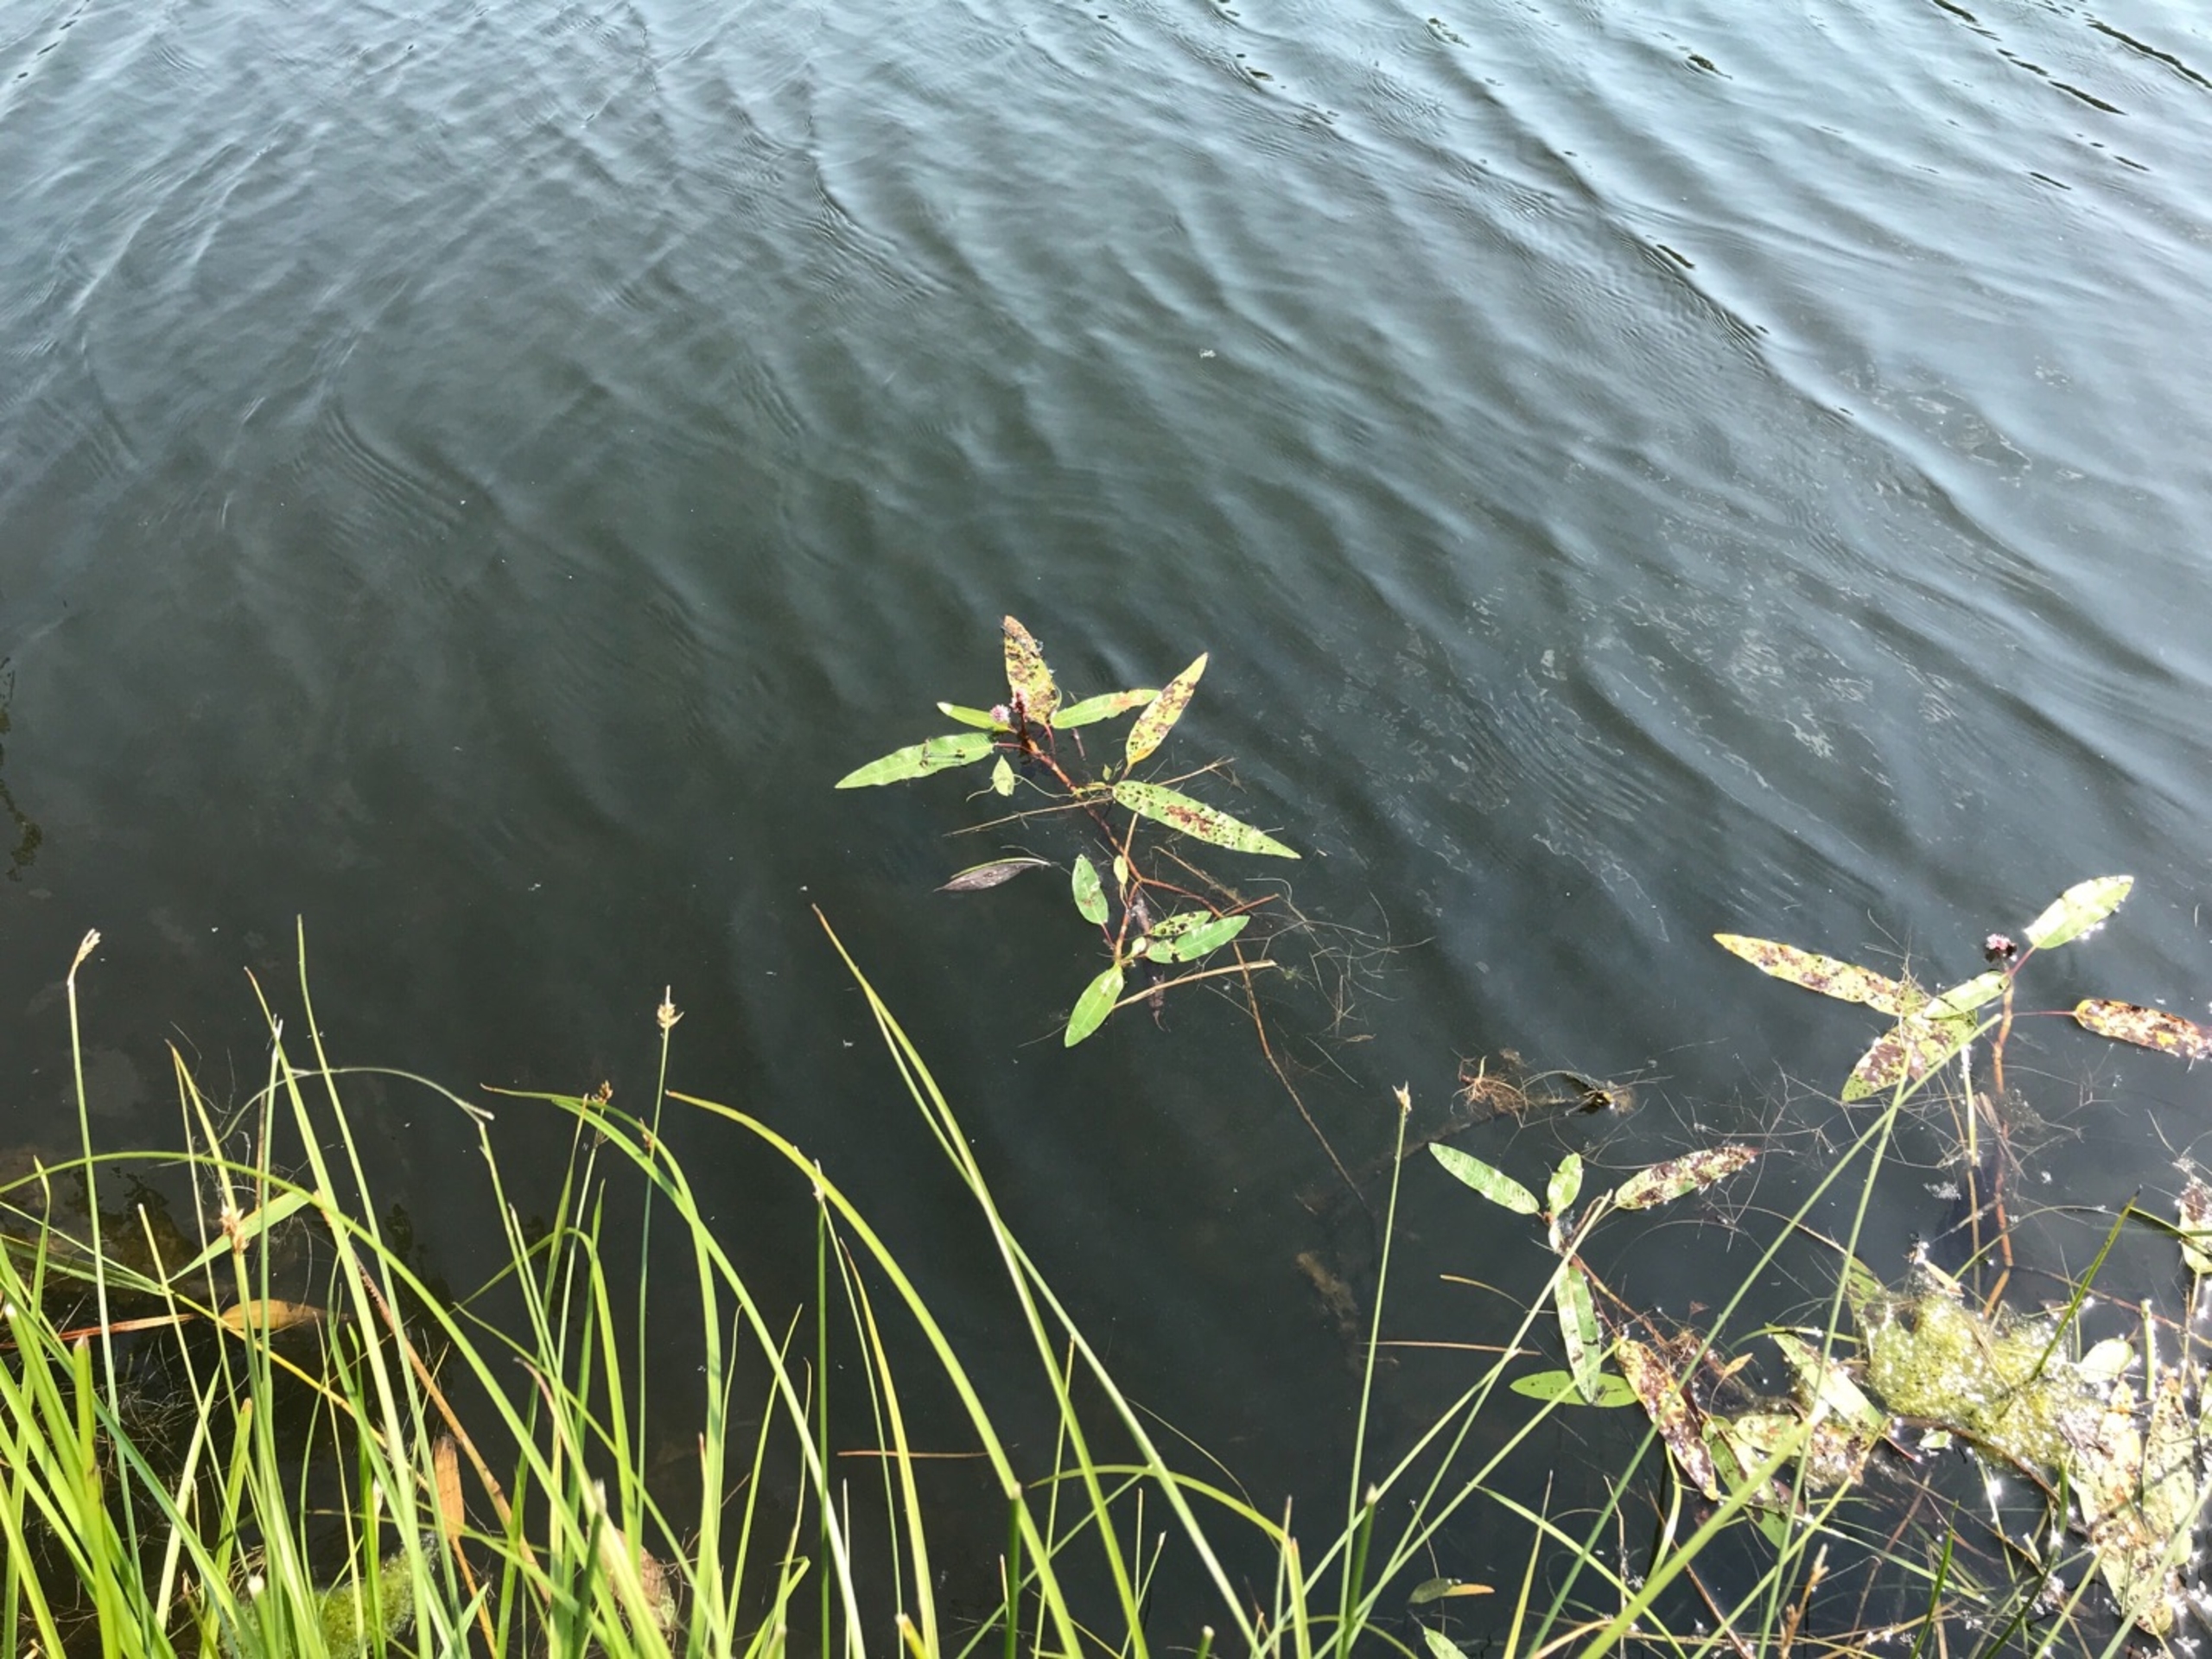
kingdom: Plantae
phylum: Tracheophyta
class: Magnoliopsida
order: Caryophyllales
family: Polygonaceae
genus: Persicaria
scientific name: Persicaria amphibia
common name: Vand-pileurt
